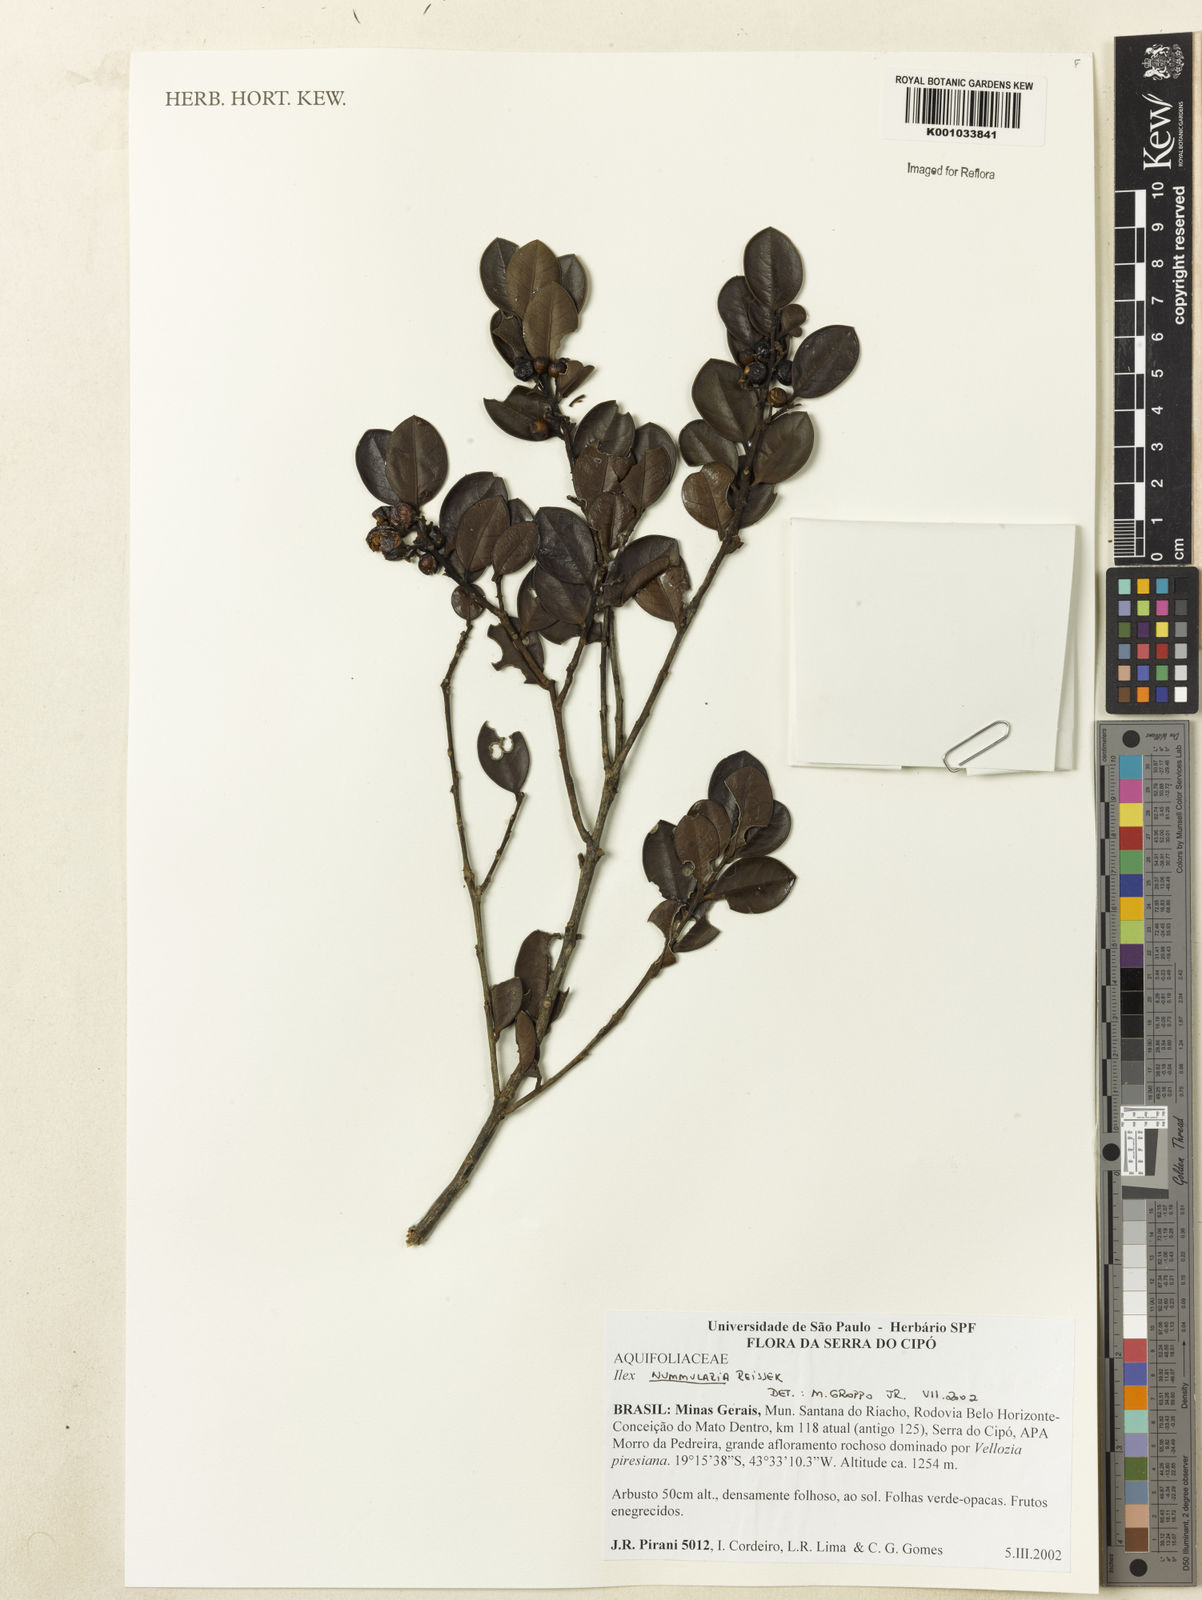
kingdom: Plantae
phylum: Tracheophyta
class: Magnoliopsida
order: Aquifoliales
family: Aquifoliaceae
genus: Ilex
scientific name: Ilex nummularia
